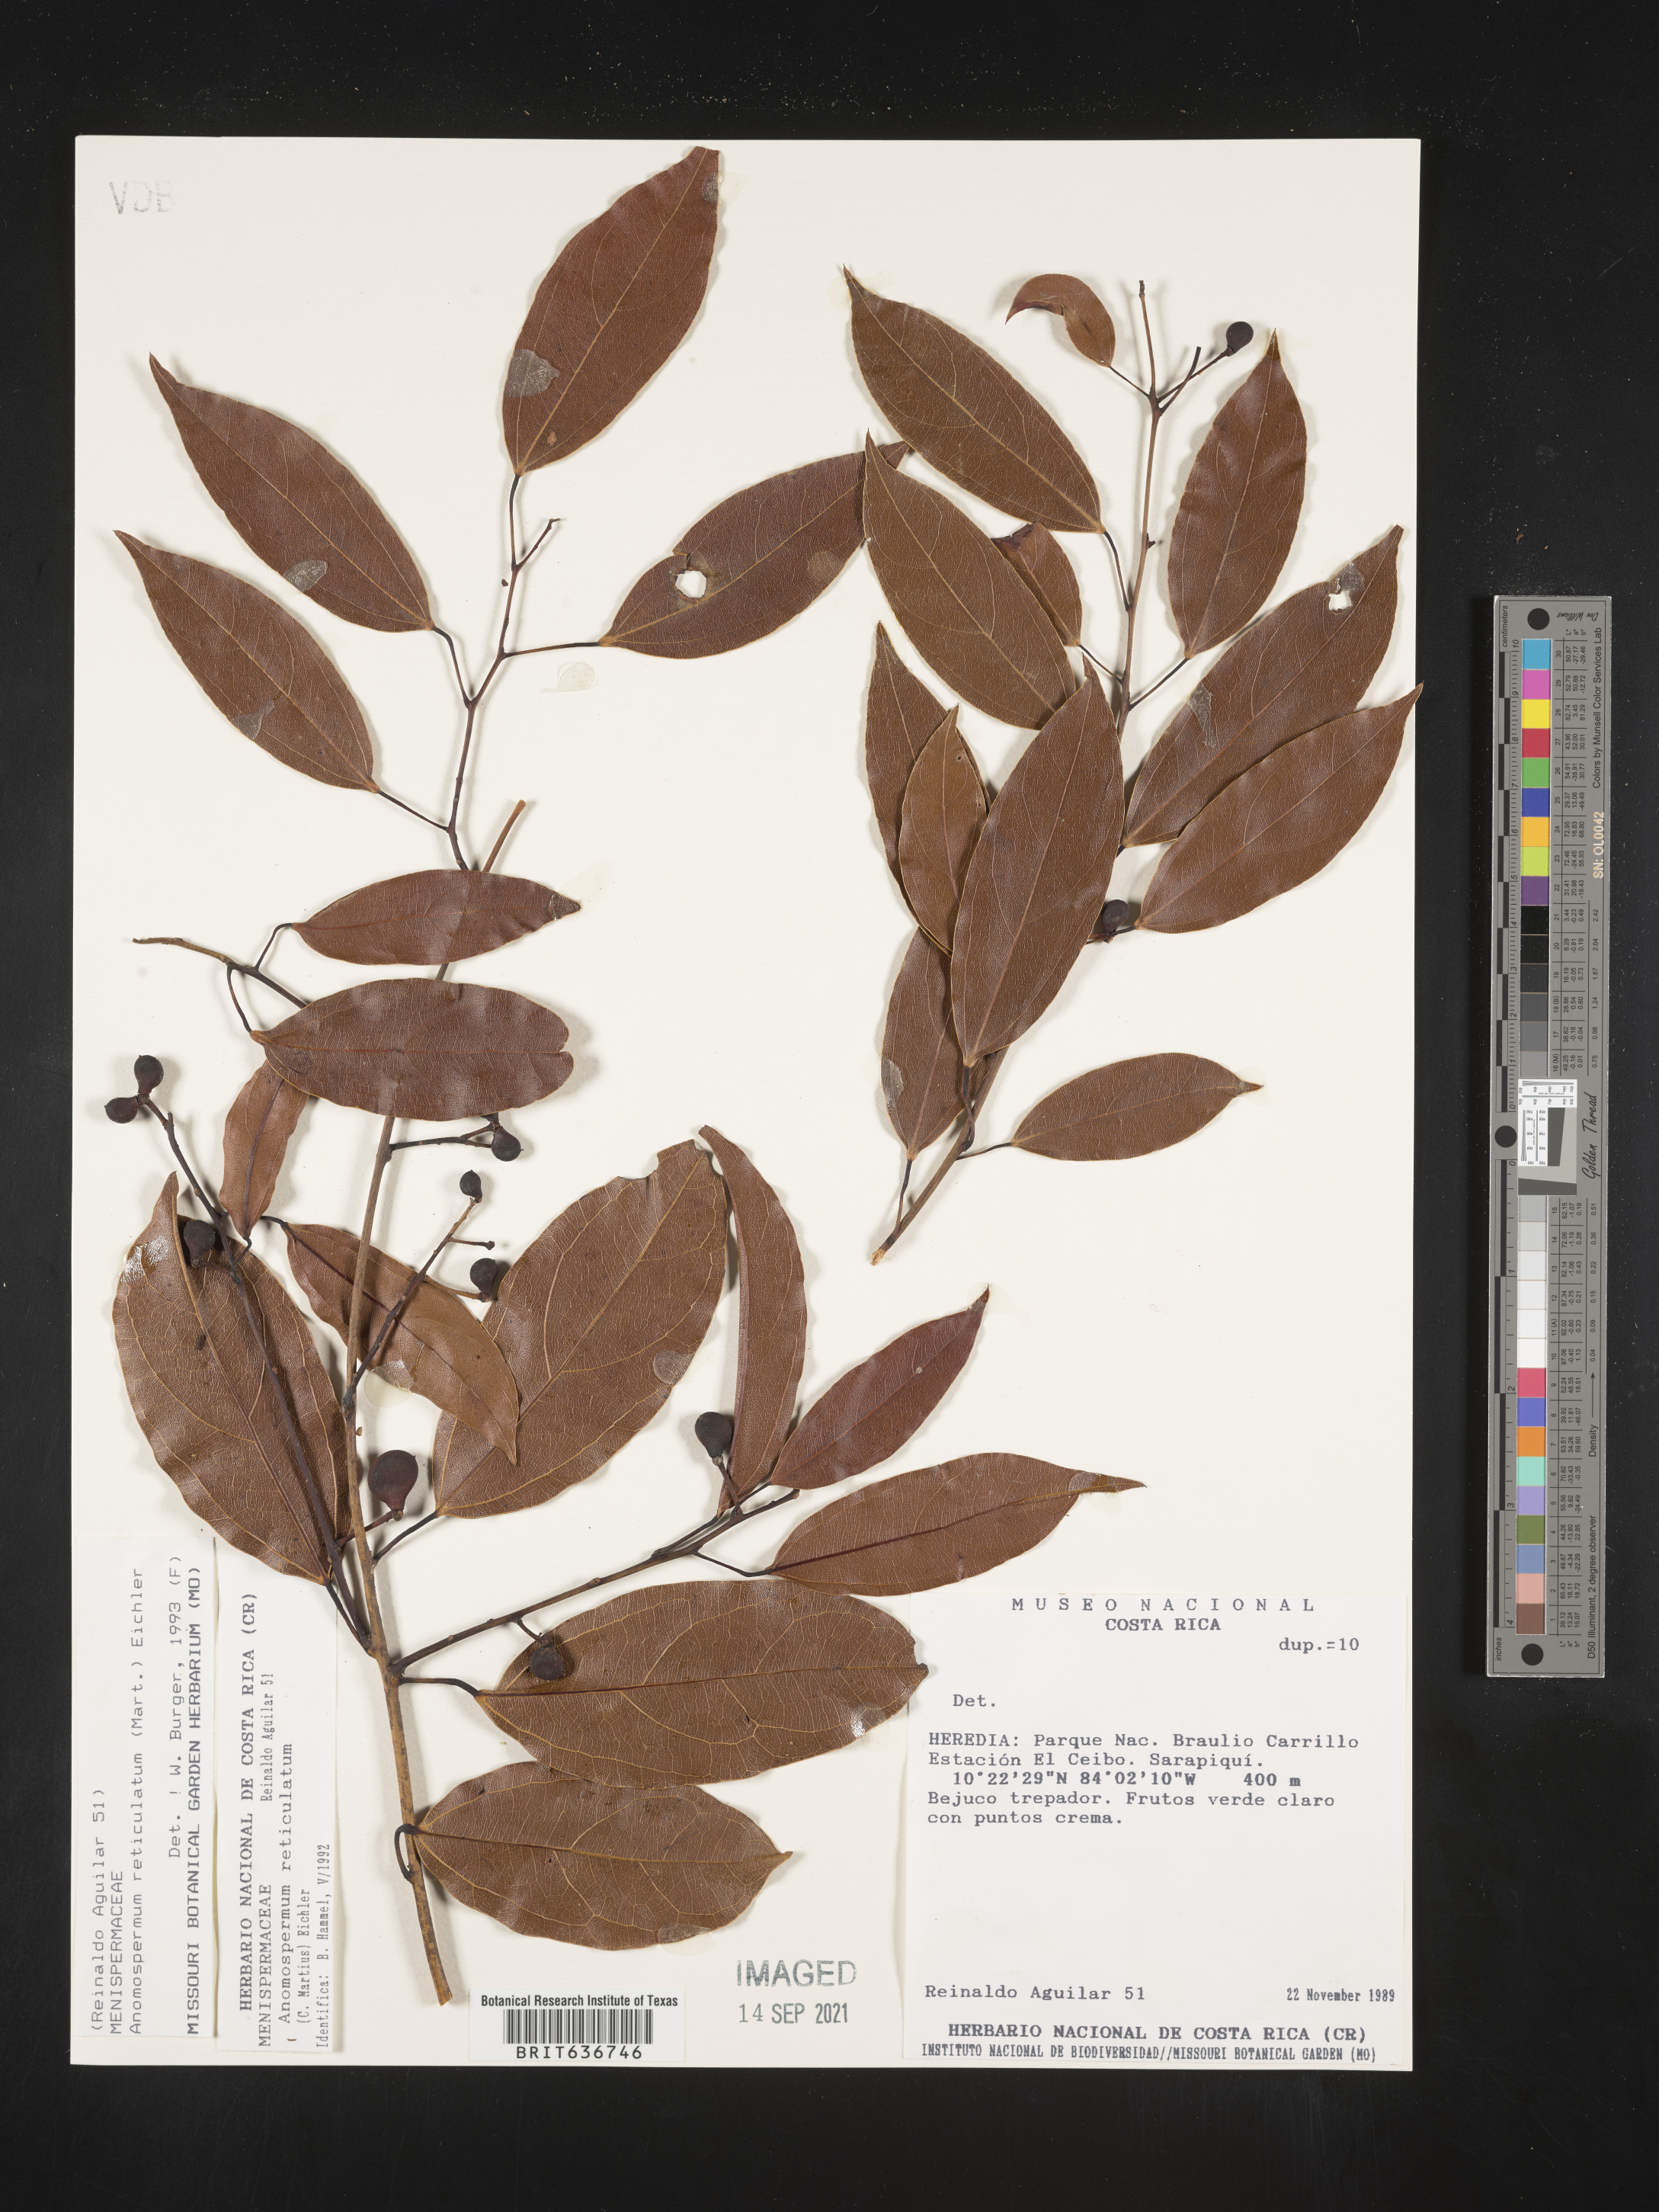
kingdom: Plantae
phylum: Tracheophyta
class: Magnoliopsida
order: Ranunculales
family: Menispermaceae
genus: Anomospermum
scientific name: Anomospermum
